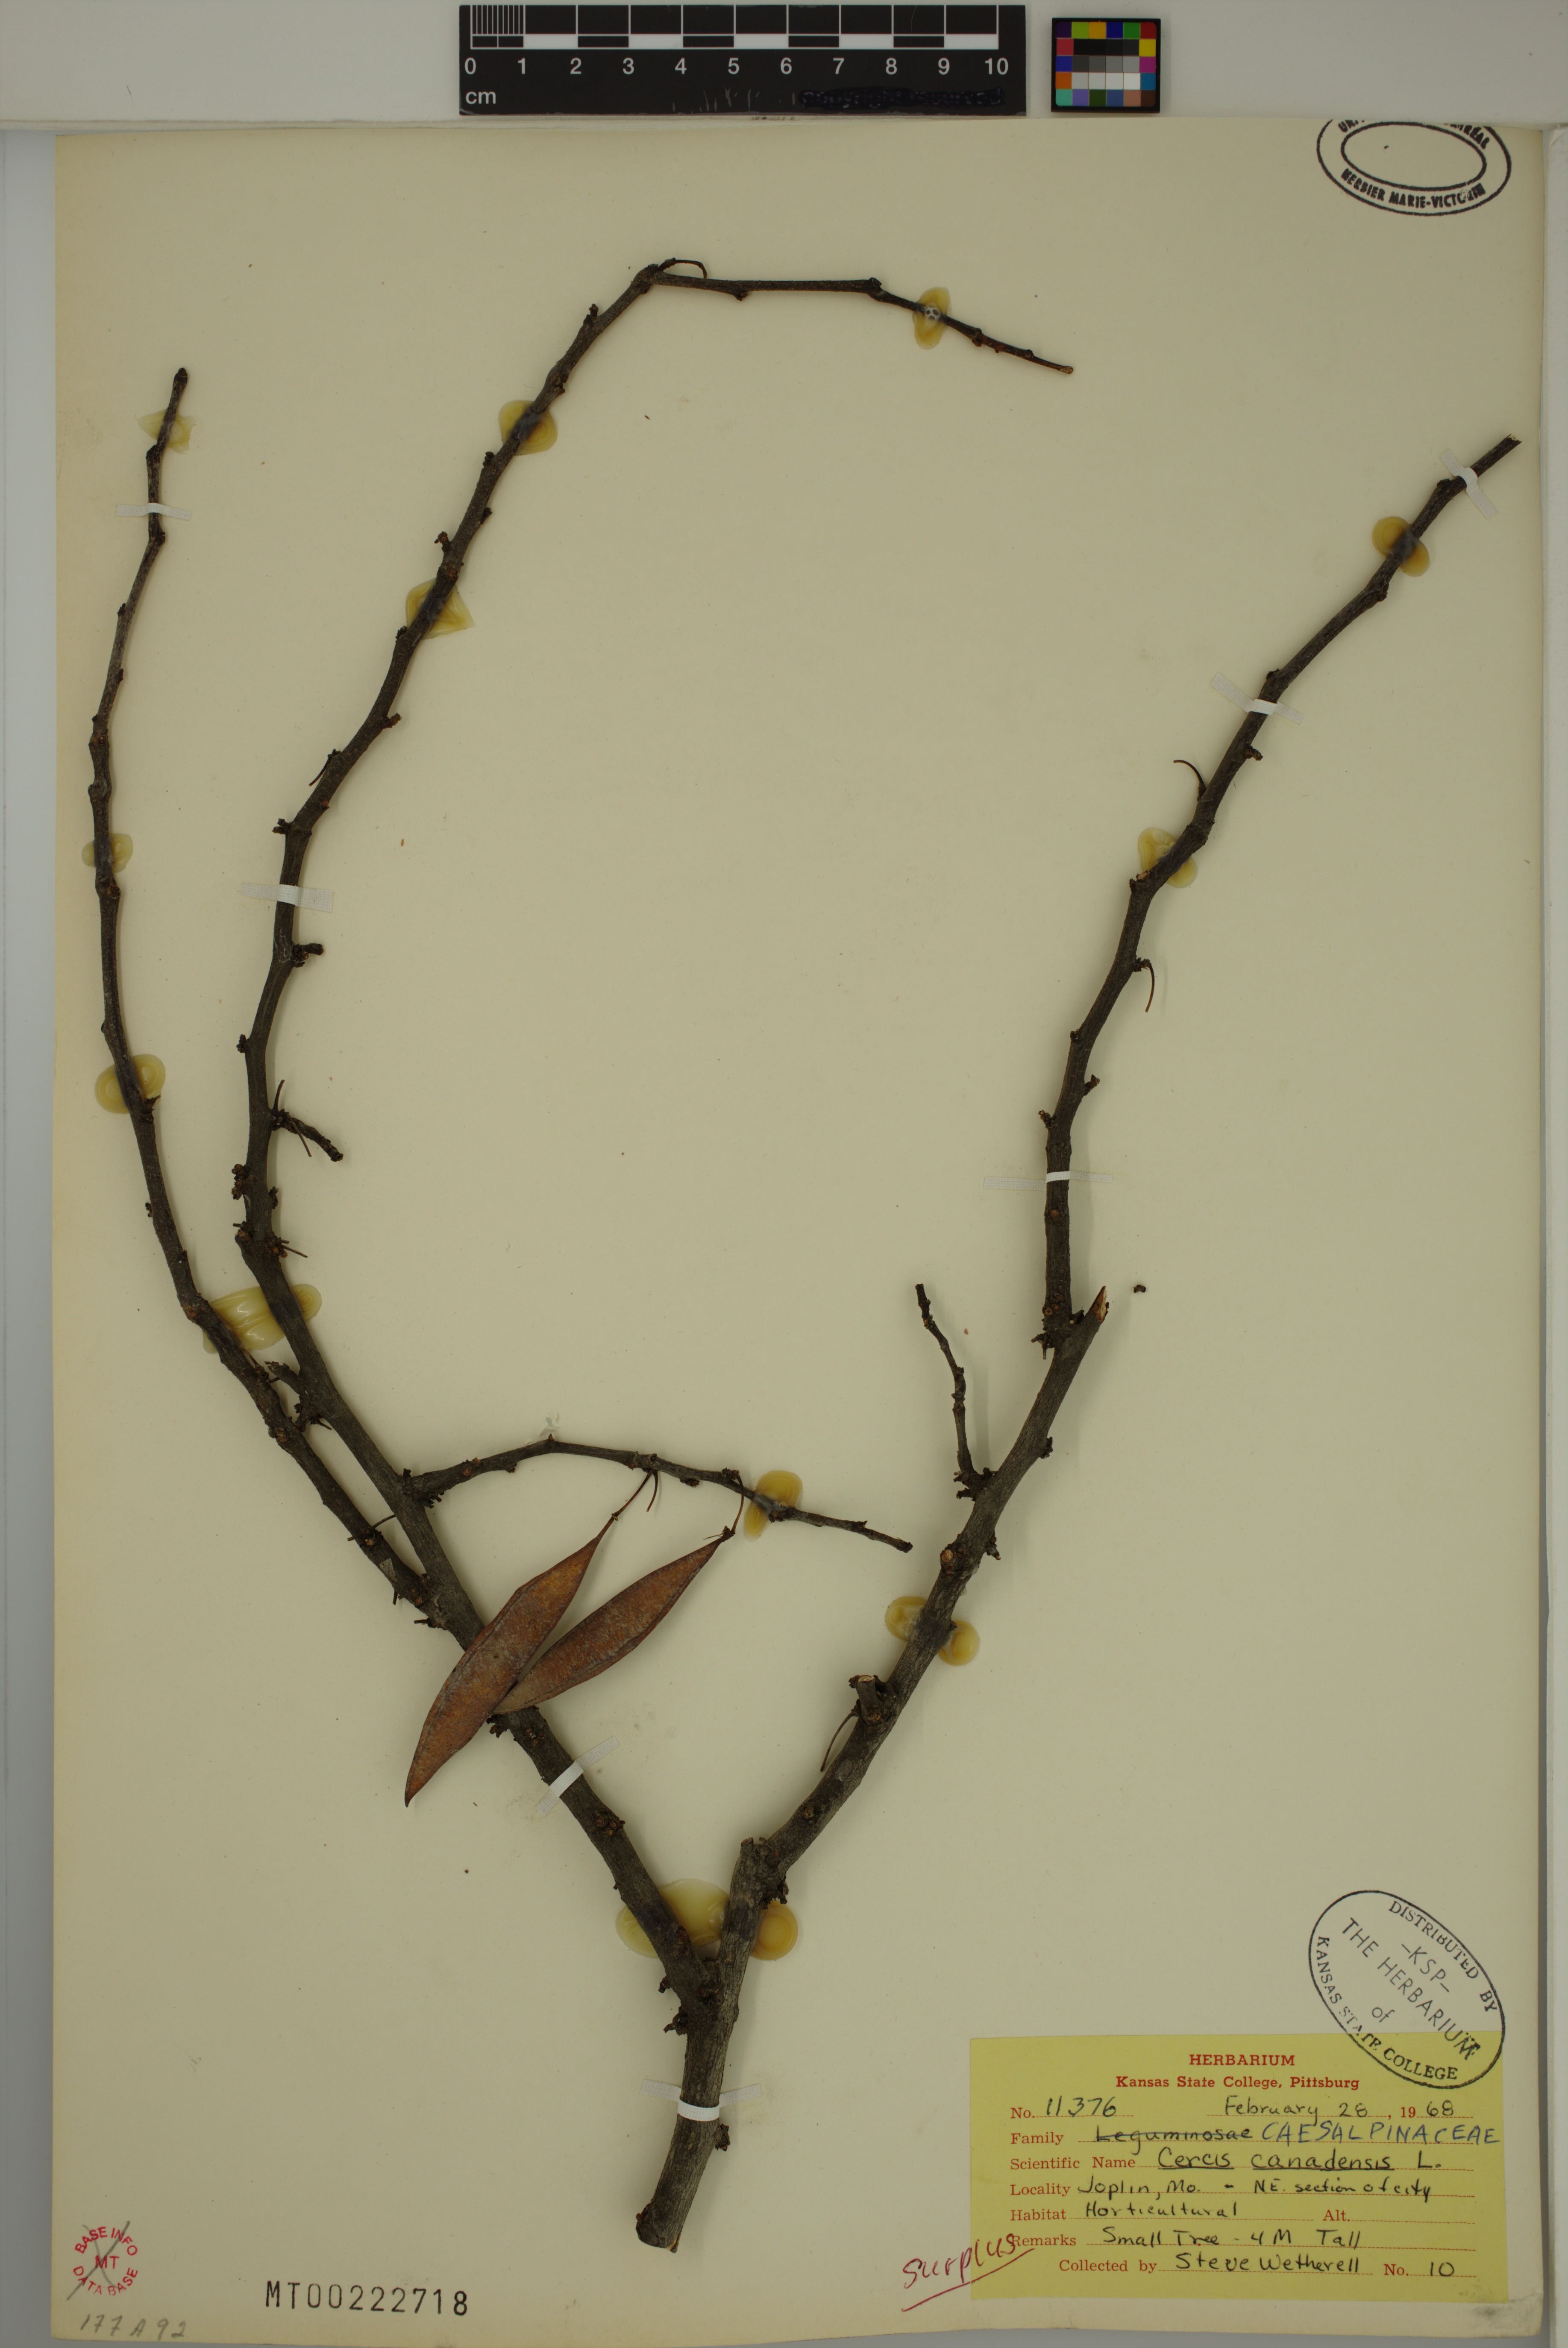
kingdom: Plantae
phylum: Tracheophyta
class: Magnoliopsida
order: Fabales
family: Fabaceae
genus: Cercis
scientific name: Cercis canadensis
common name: Eastern redbud
